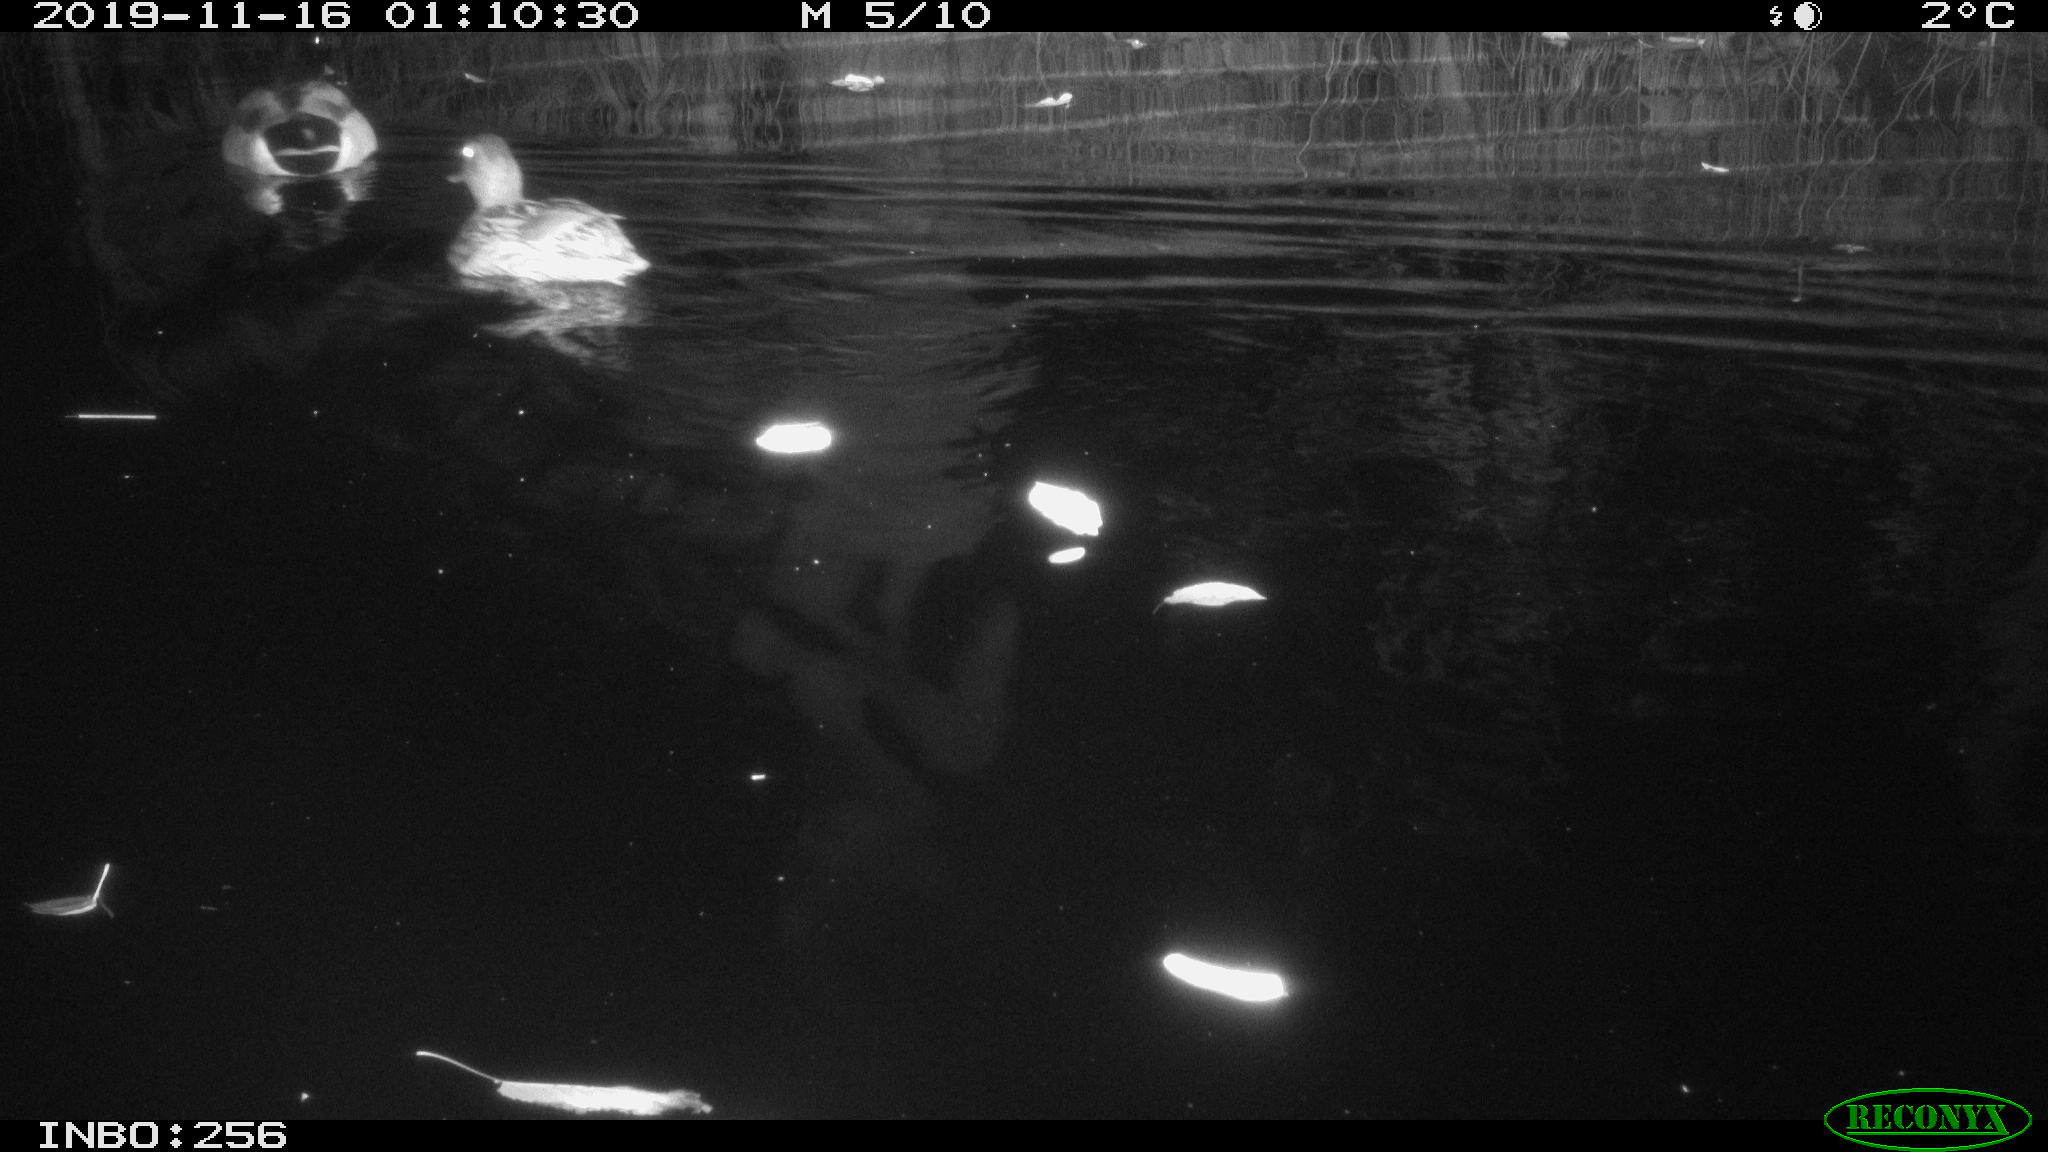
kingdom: Animalia
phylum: Chordata
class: Mammalia
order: Rodentia
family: Muridae
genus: Rattus
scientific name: Rattus norvegicus
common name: Brown rat
